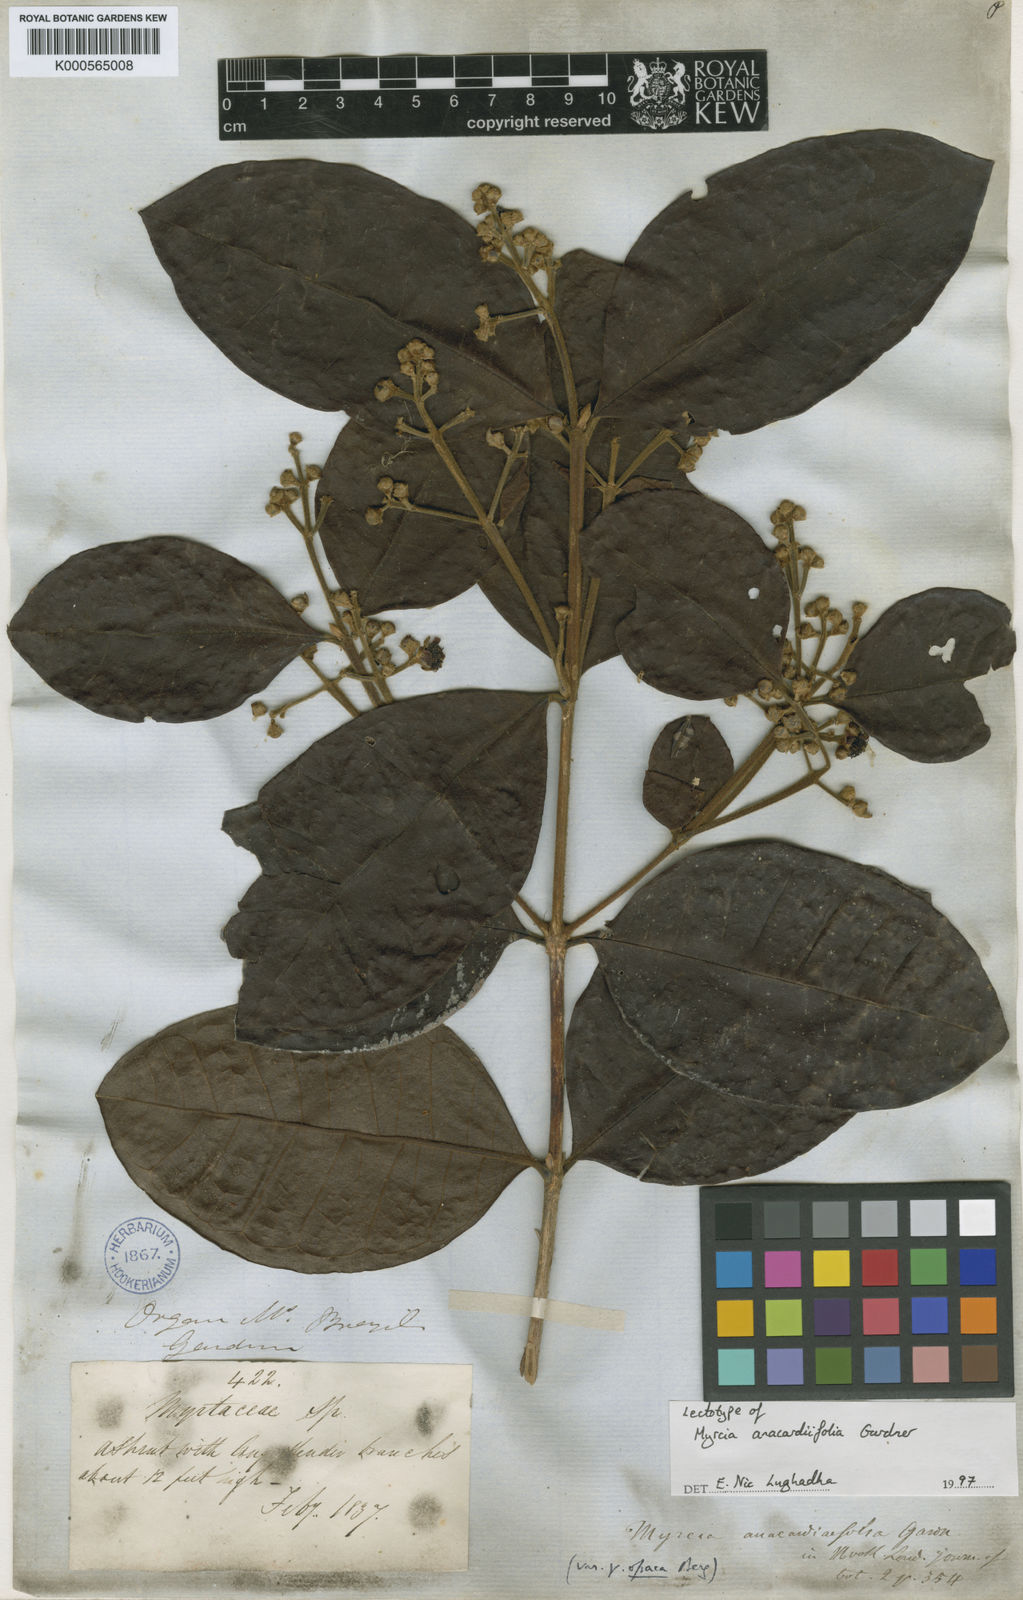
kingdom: Plantae
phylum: Tracheophyta
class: Magnoliopsida
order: Myrtales
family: Myrtaceae
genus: Myrcia
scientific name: Myrcia anacardiifolia
